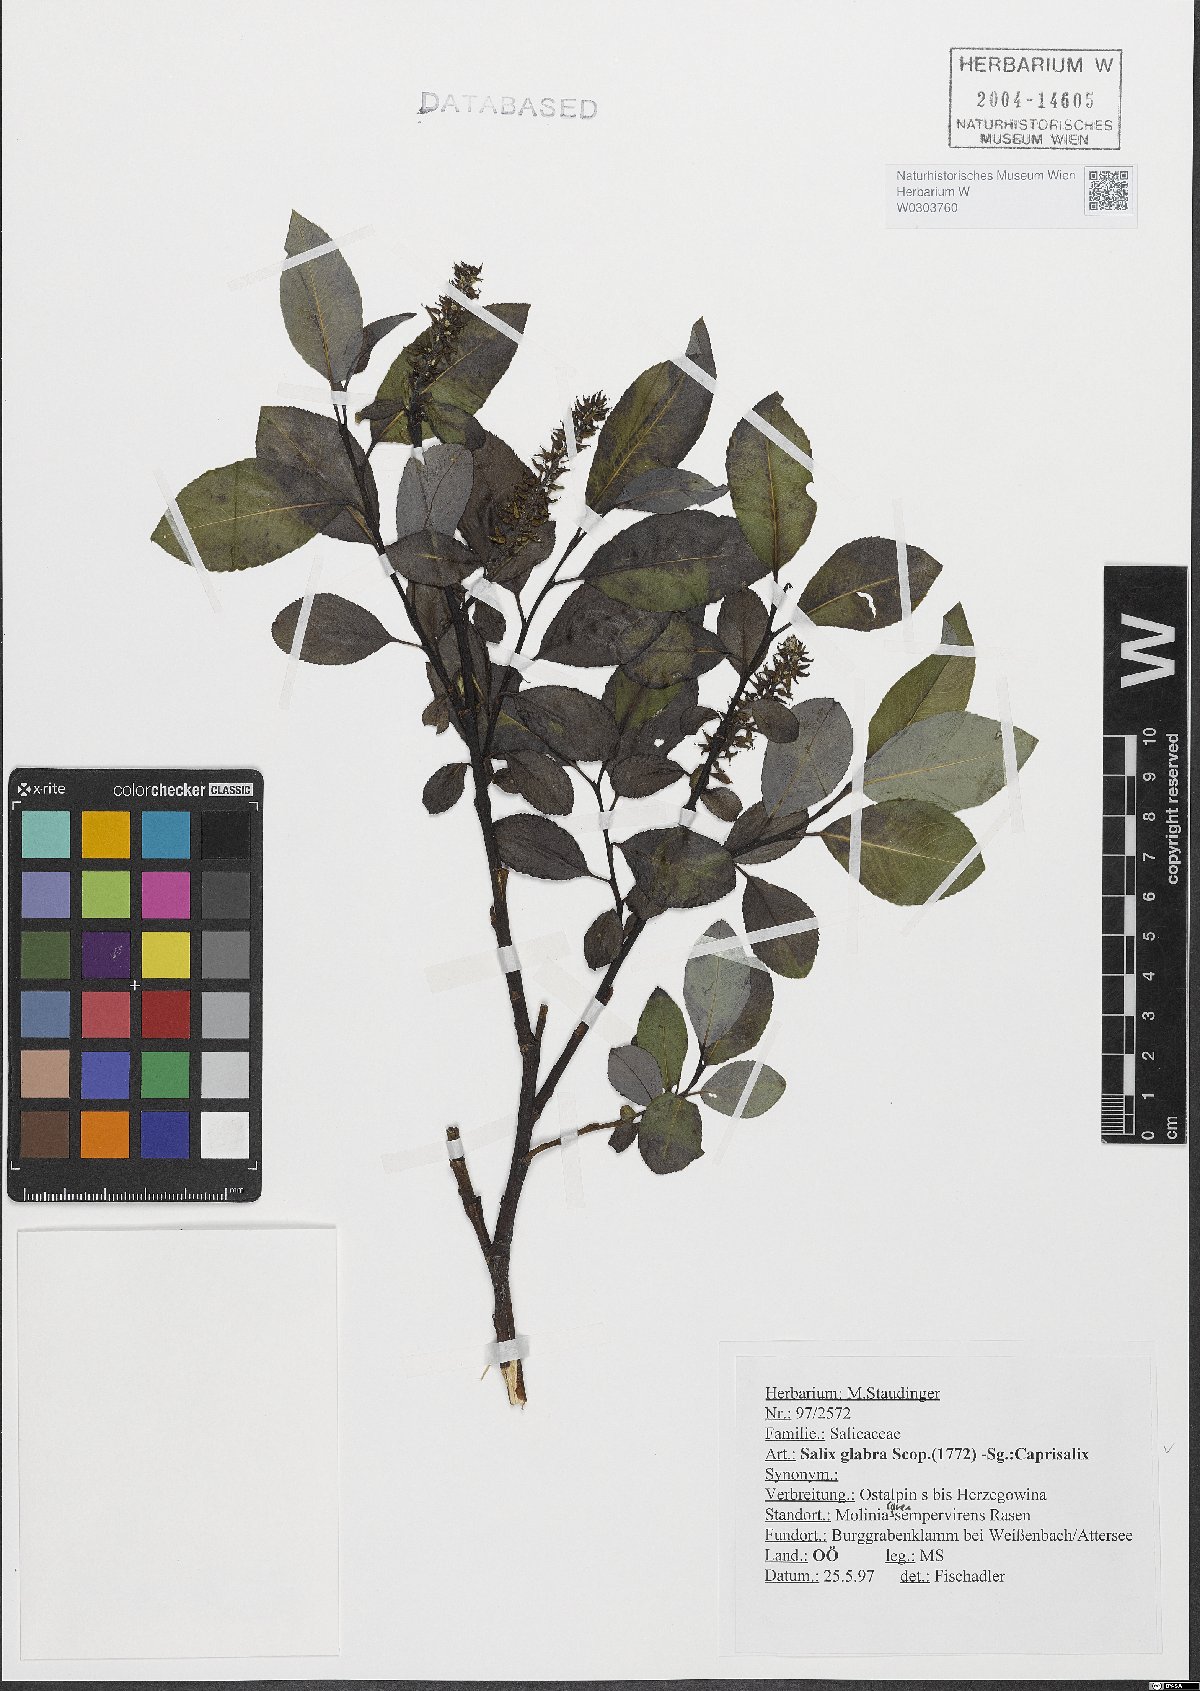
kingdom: Plantae
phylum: Tracheophyta
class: Magnoliopsida
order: Malpighiales
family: Salicaceae
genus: Salix
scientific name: Salix glabra
